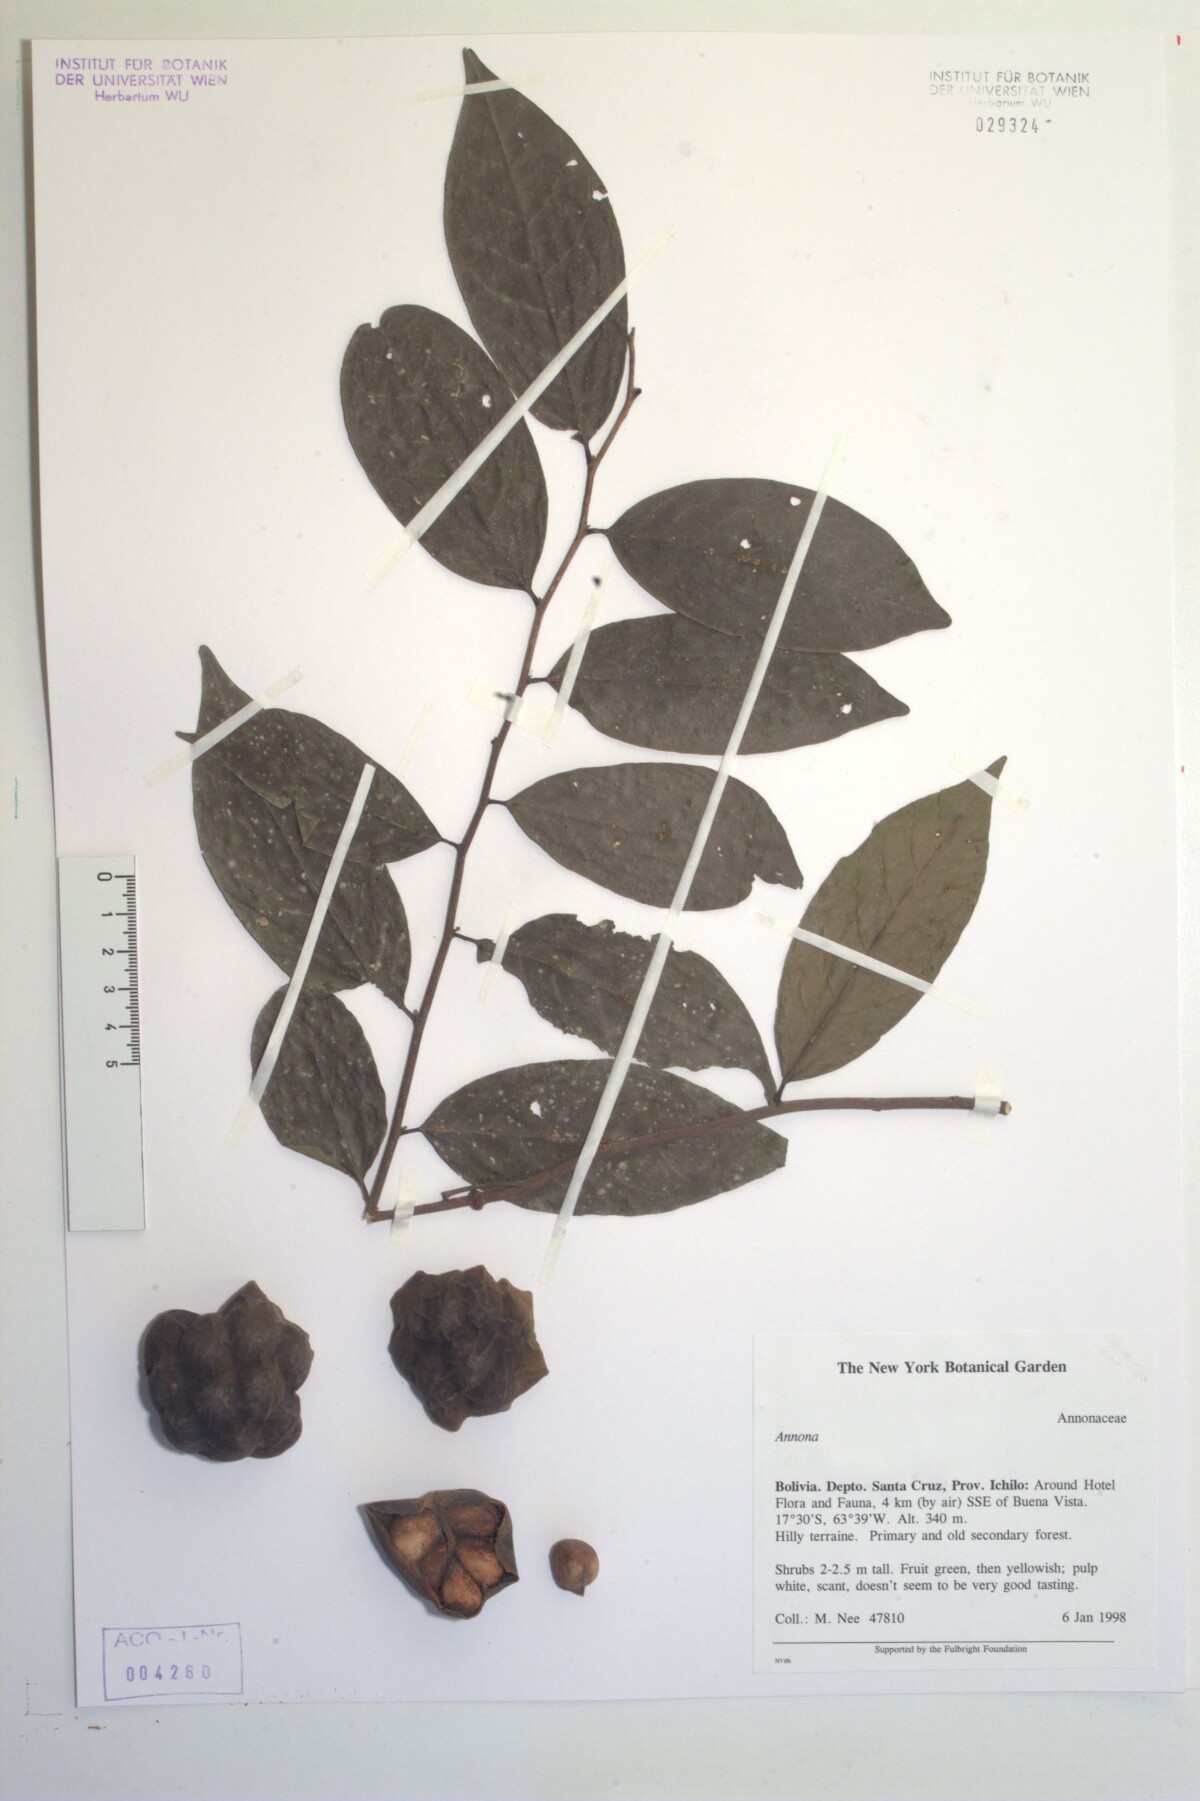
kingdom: Plantae
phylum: Tracheophyta
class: Magnoliopsida
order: Magnoliales
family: Annonaceae
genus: Annona
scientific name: Annona
